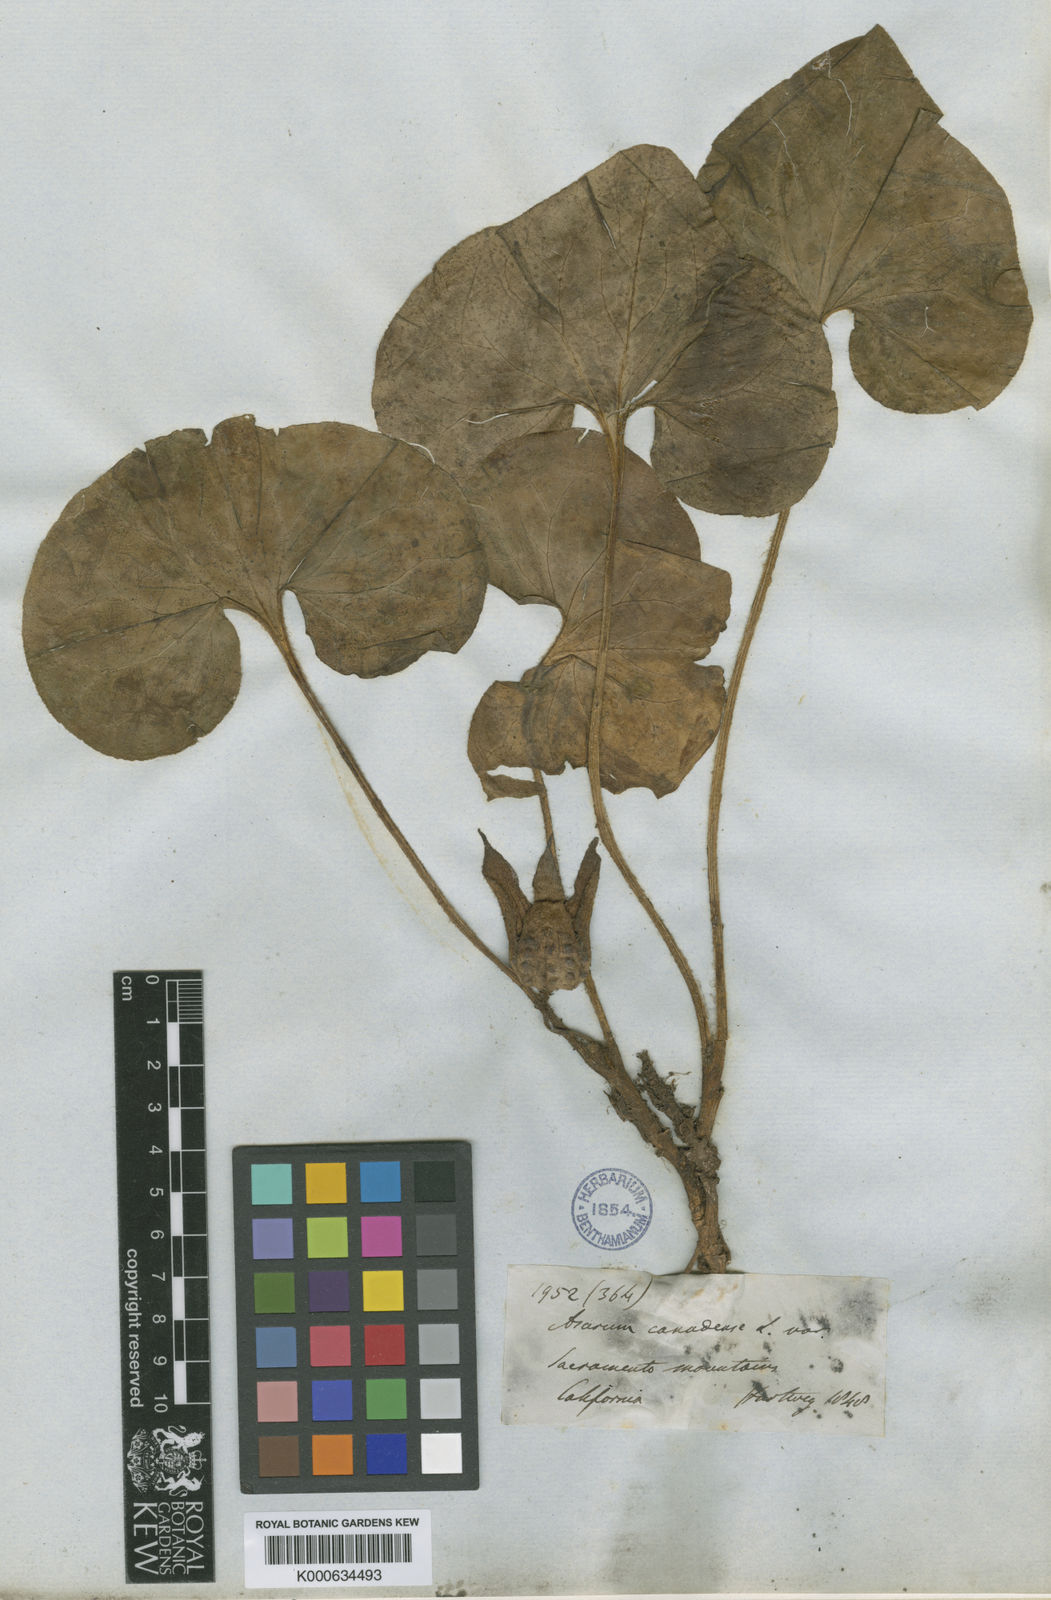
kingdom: Plantae
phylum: Tracheophyta
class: Magnoliopsida
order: Piperales
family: Aristolochiaceae
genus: Asarum
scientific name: Asarum hartwegii
